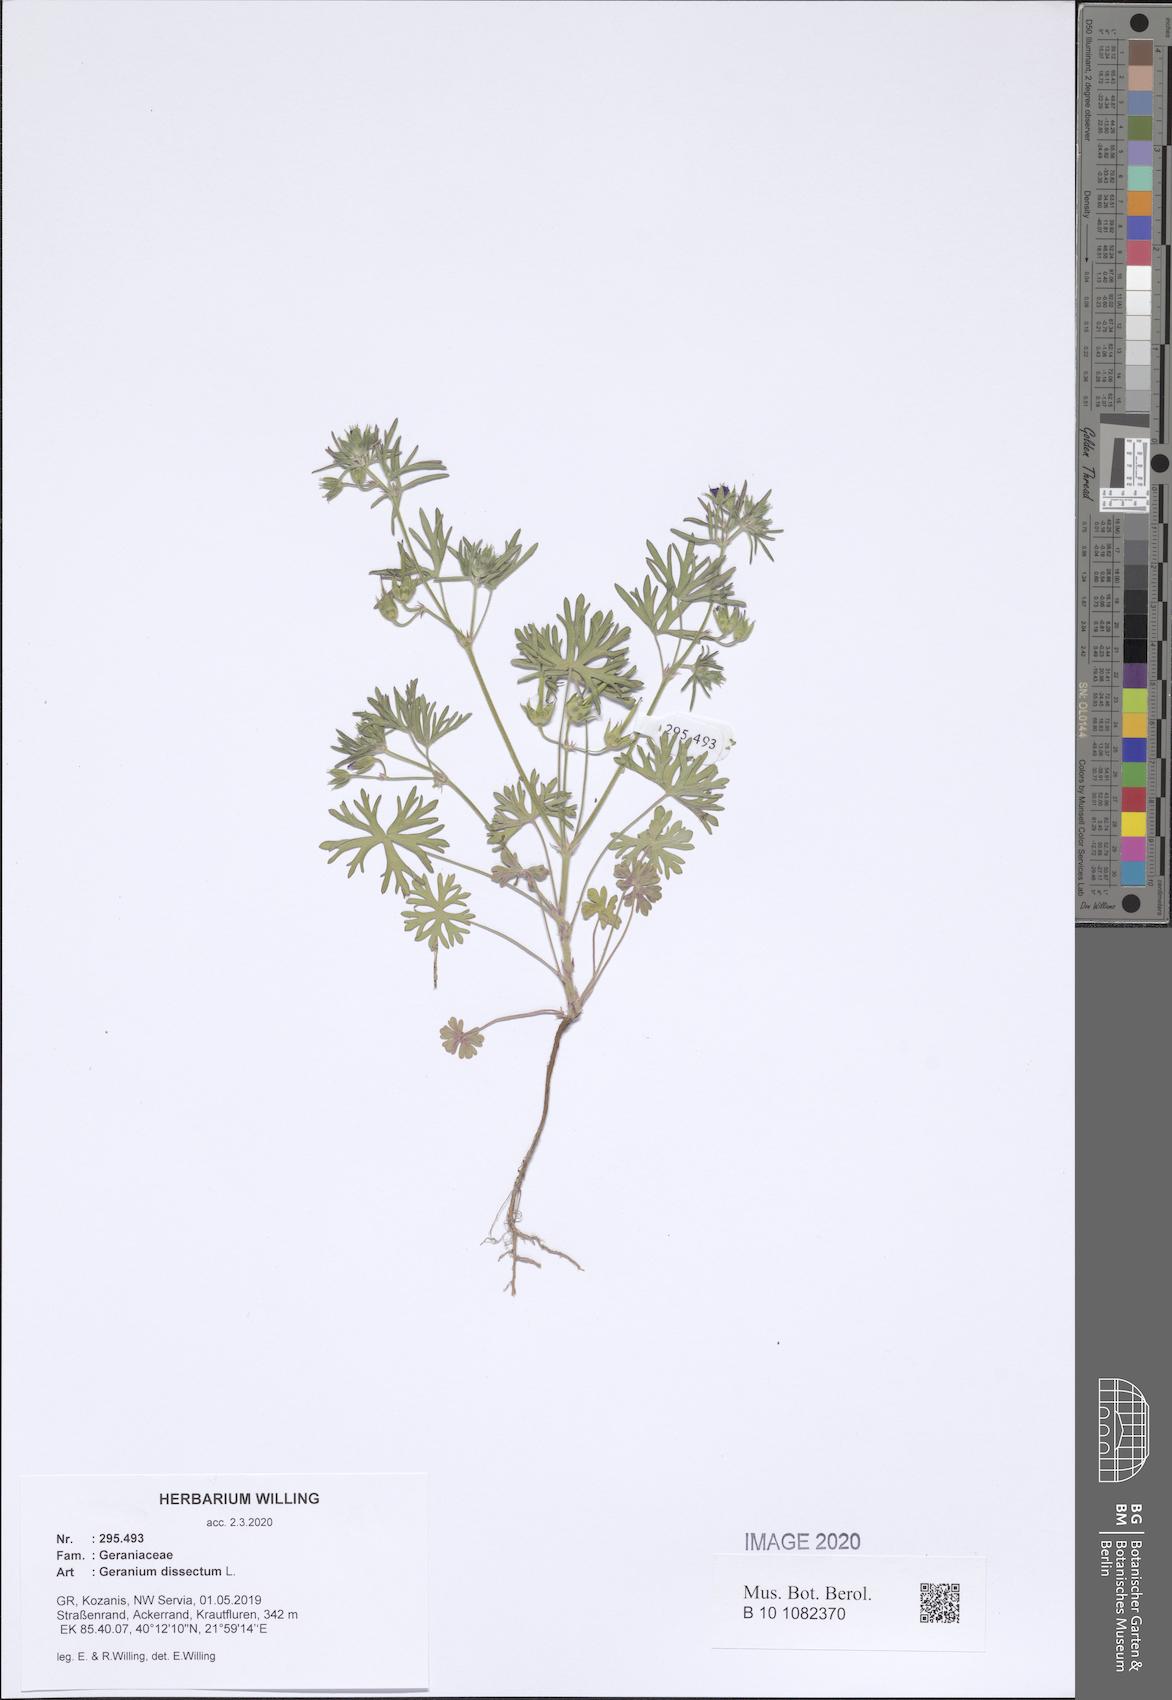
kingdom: Plantae
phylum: Tracheophyta
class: Magnoliopsida
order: Geraniales
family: Geraniaceae
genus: Geranium
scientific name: Geranium dissectum
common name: Cut-leaved crane's-bill
